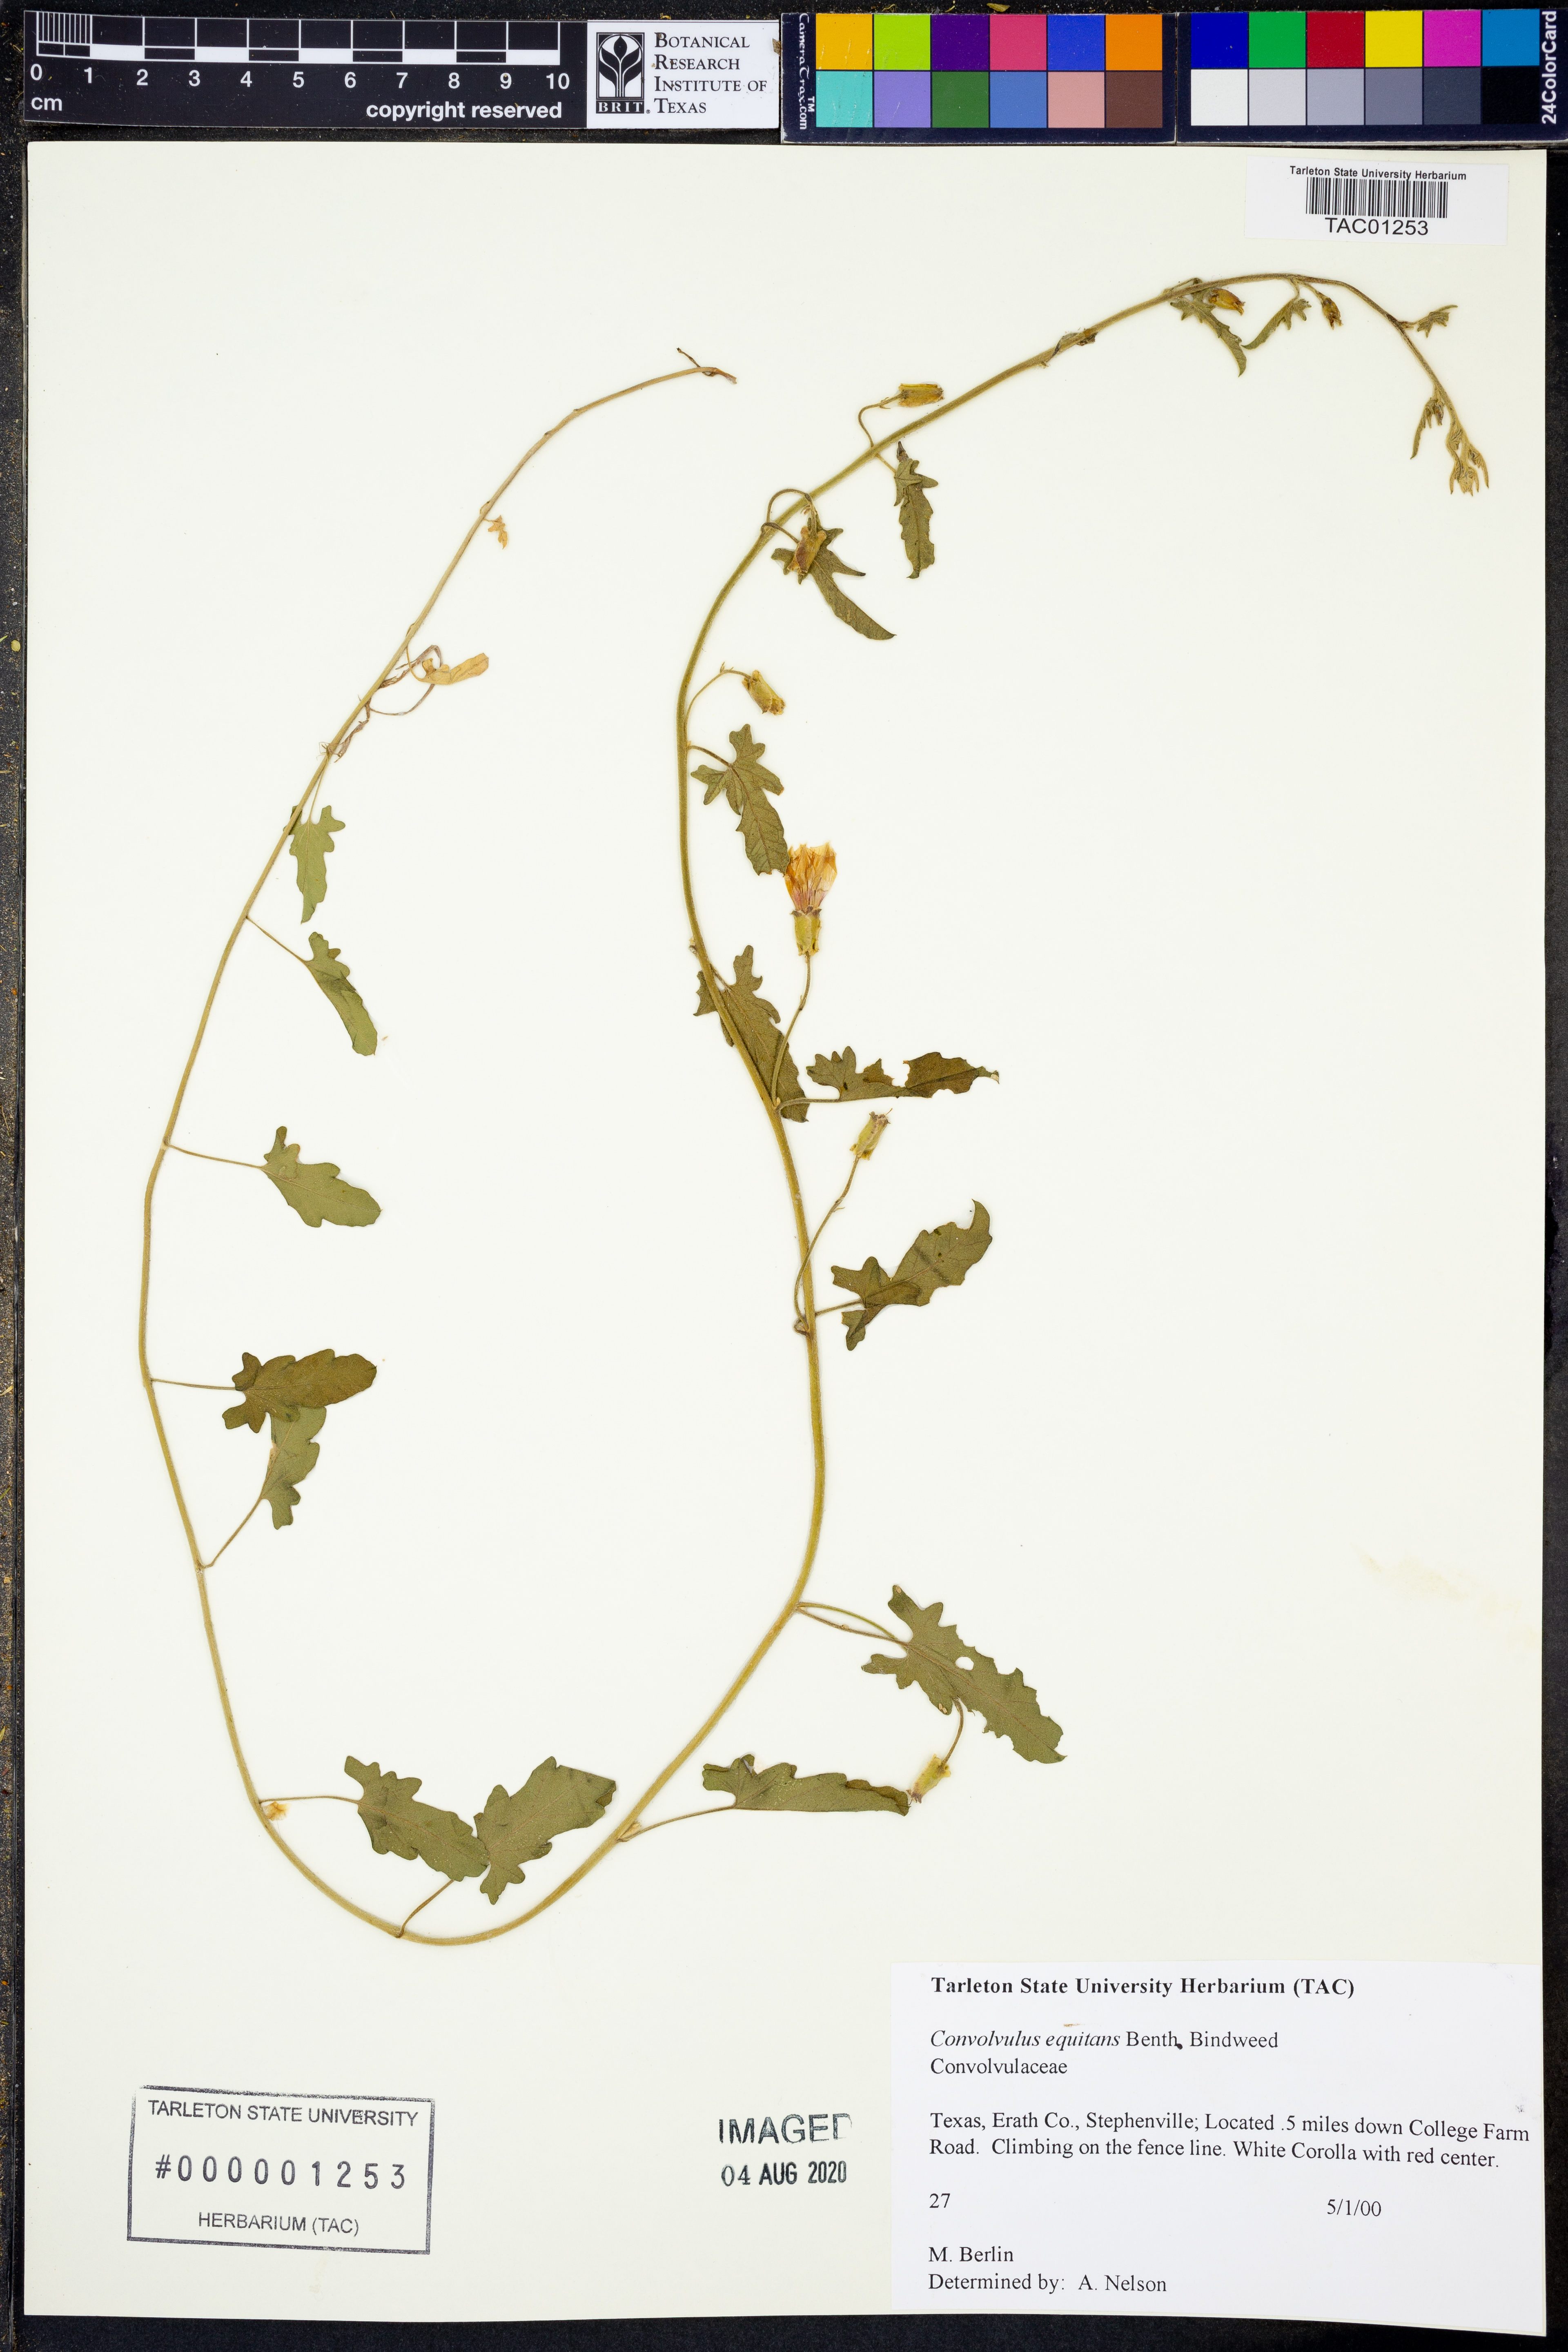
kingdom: Plantae
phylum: Tracheophyta
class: Magnoliopsida
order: Solanales
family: Convolvulaceae
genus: Convolvulus
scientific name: Convolvulus equitans
